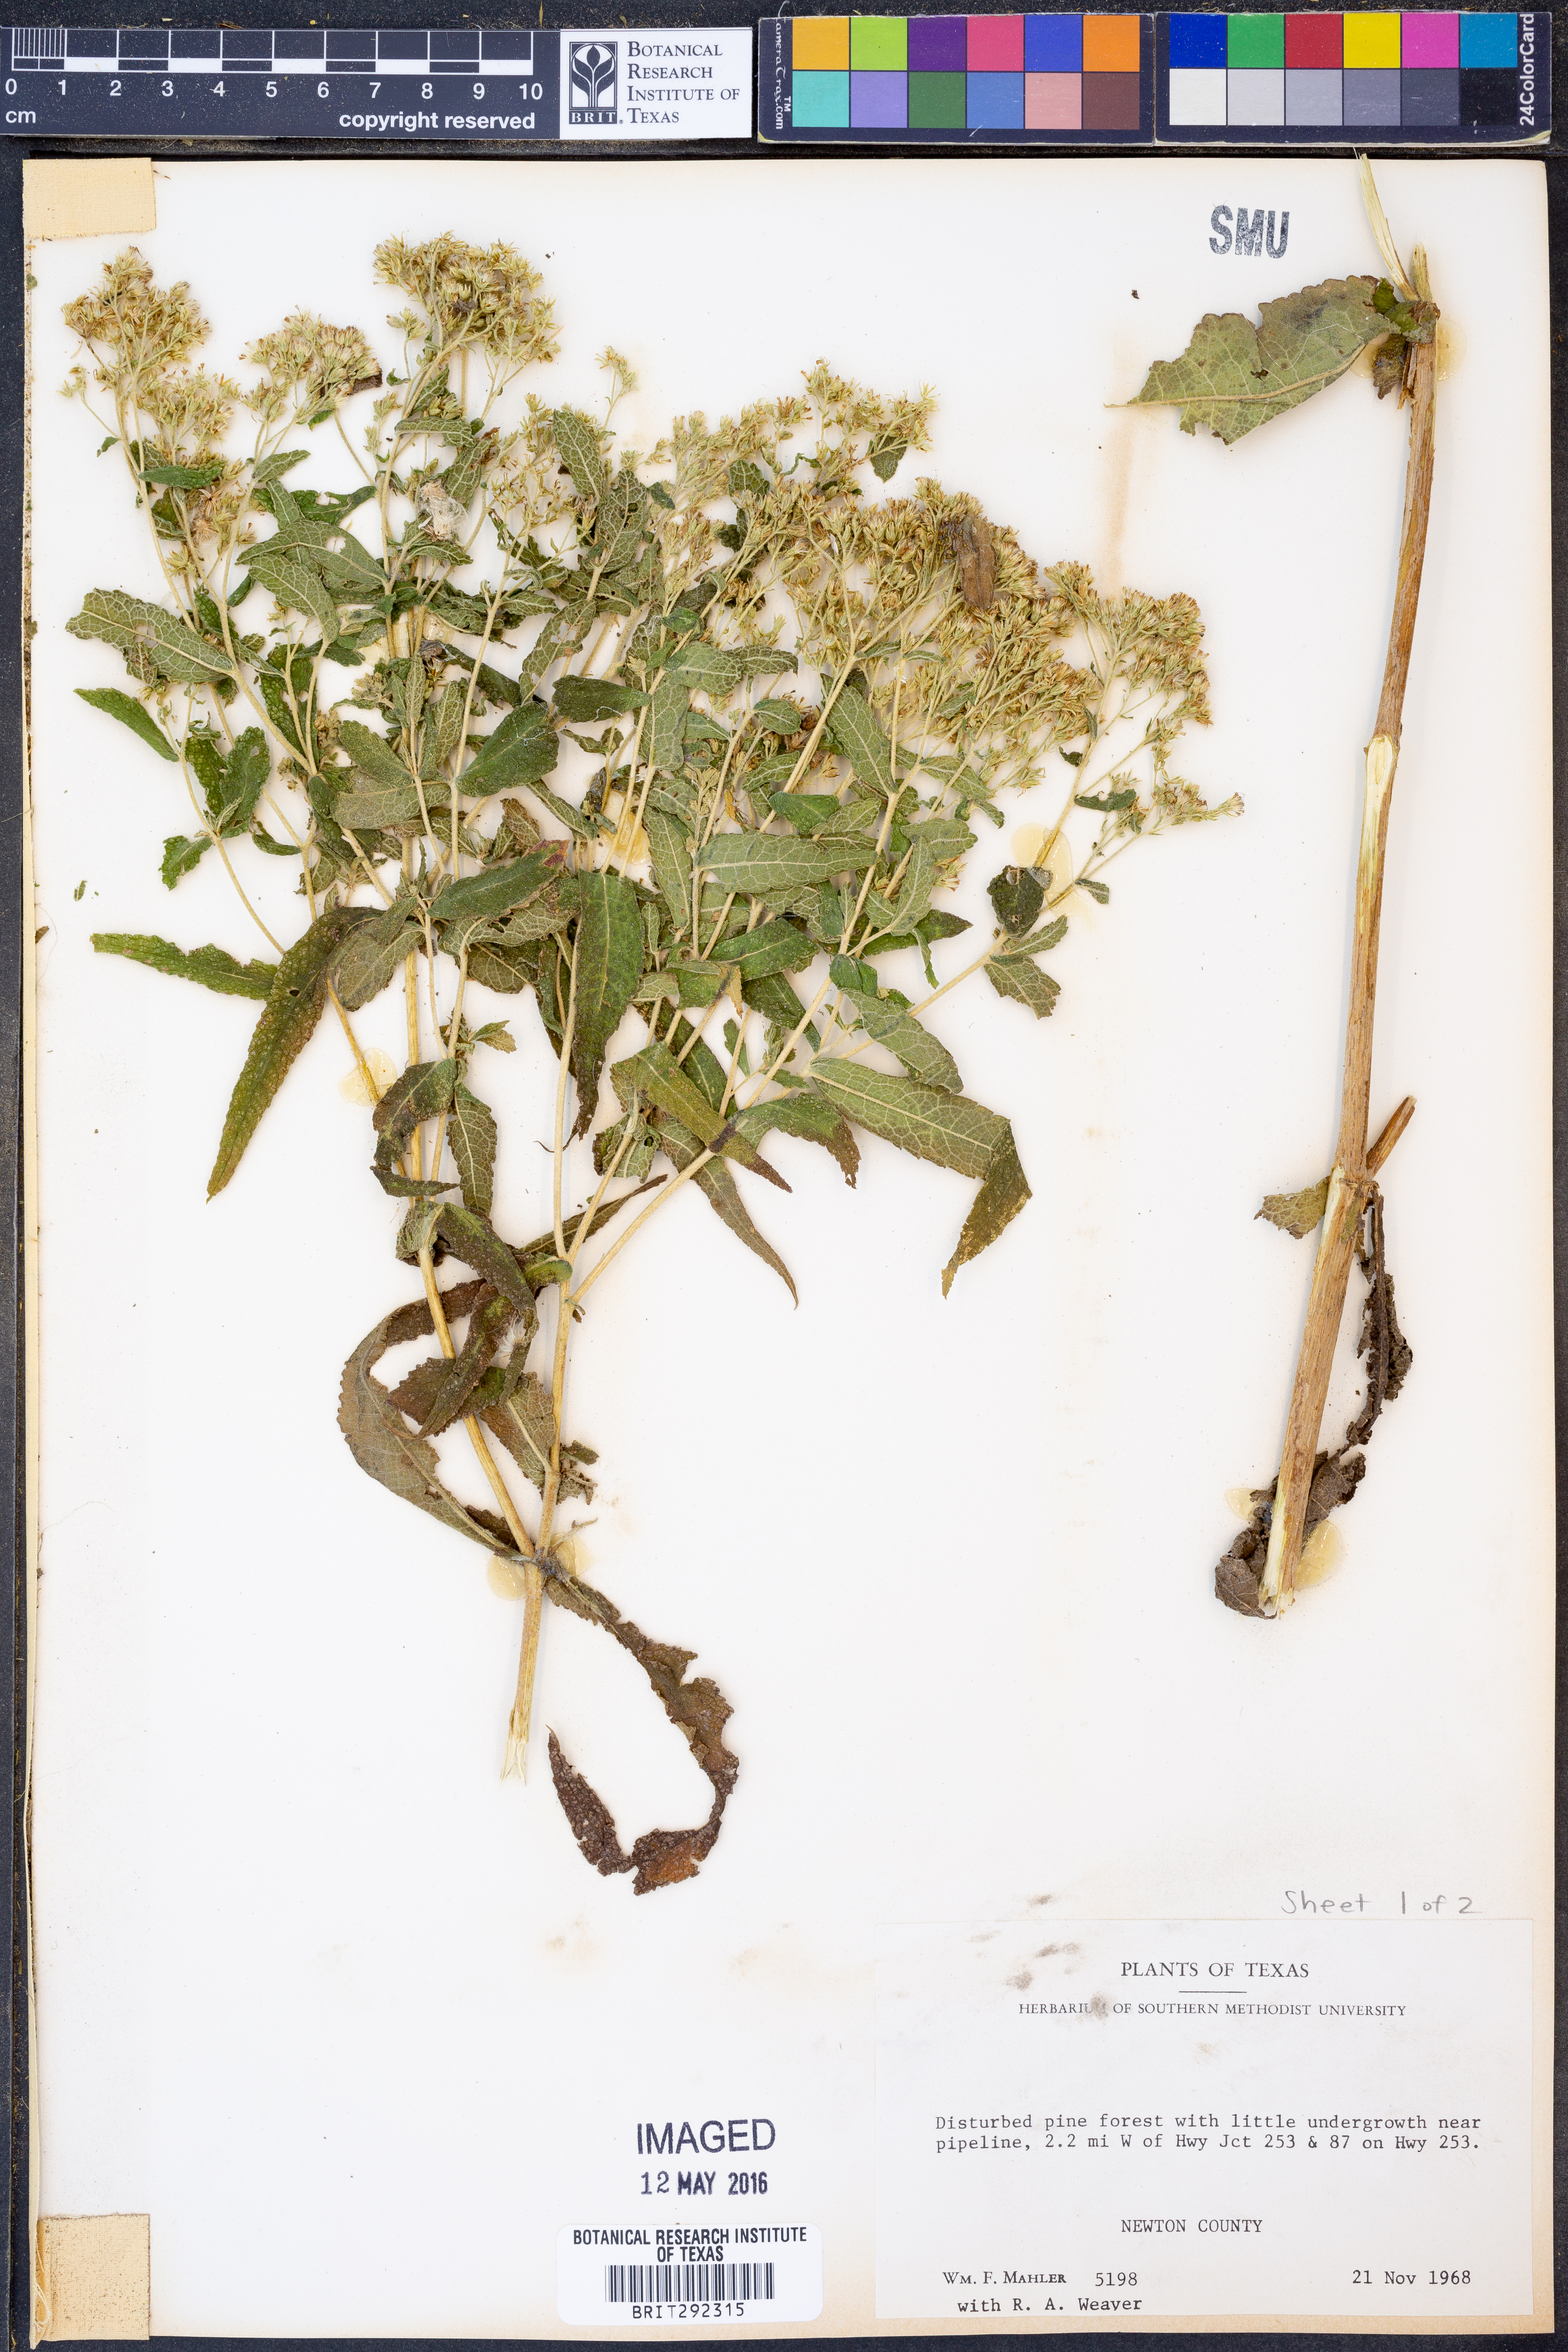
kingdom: Plantae
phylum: Tracheophyta
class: Magnoliopsida
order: Asterales
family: Asteraceae
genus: Eupatorium
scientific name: Eupatorium perfoliatum
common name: Boneset
